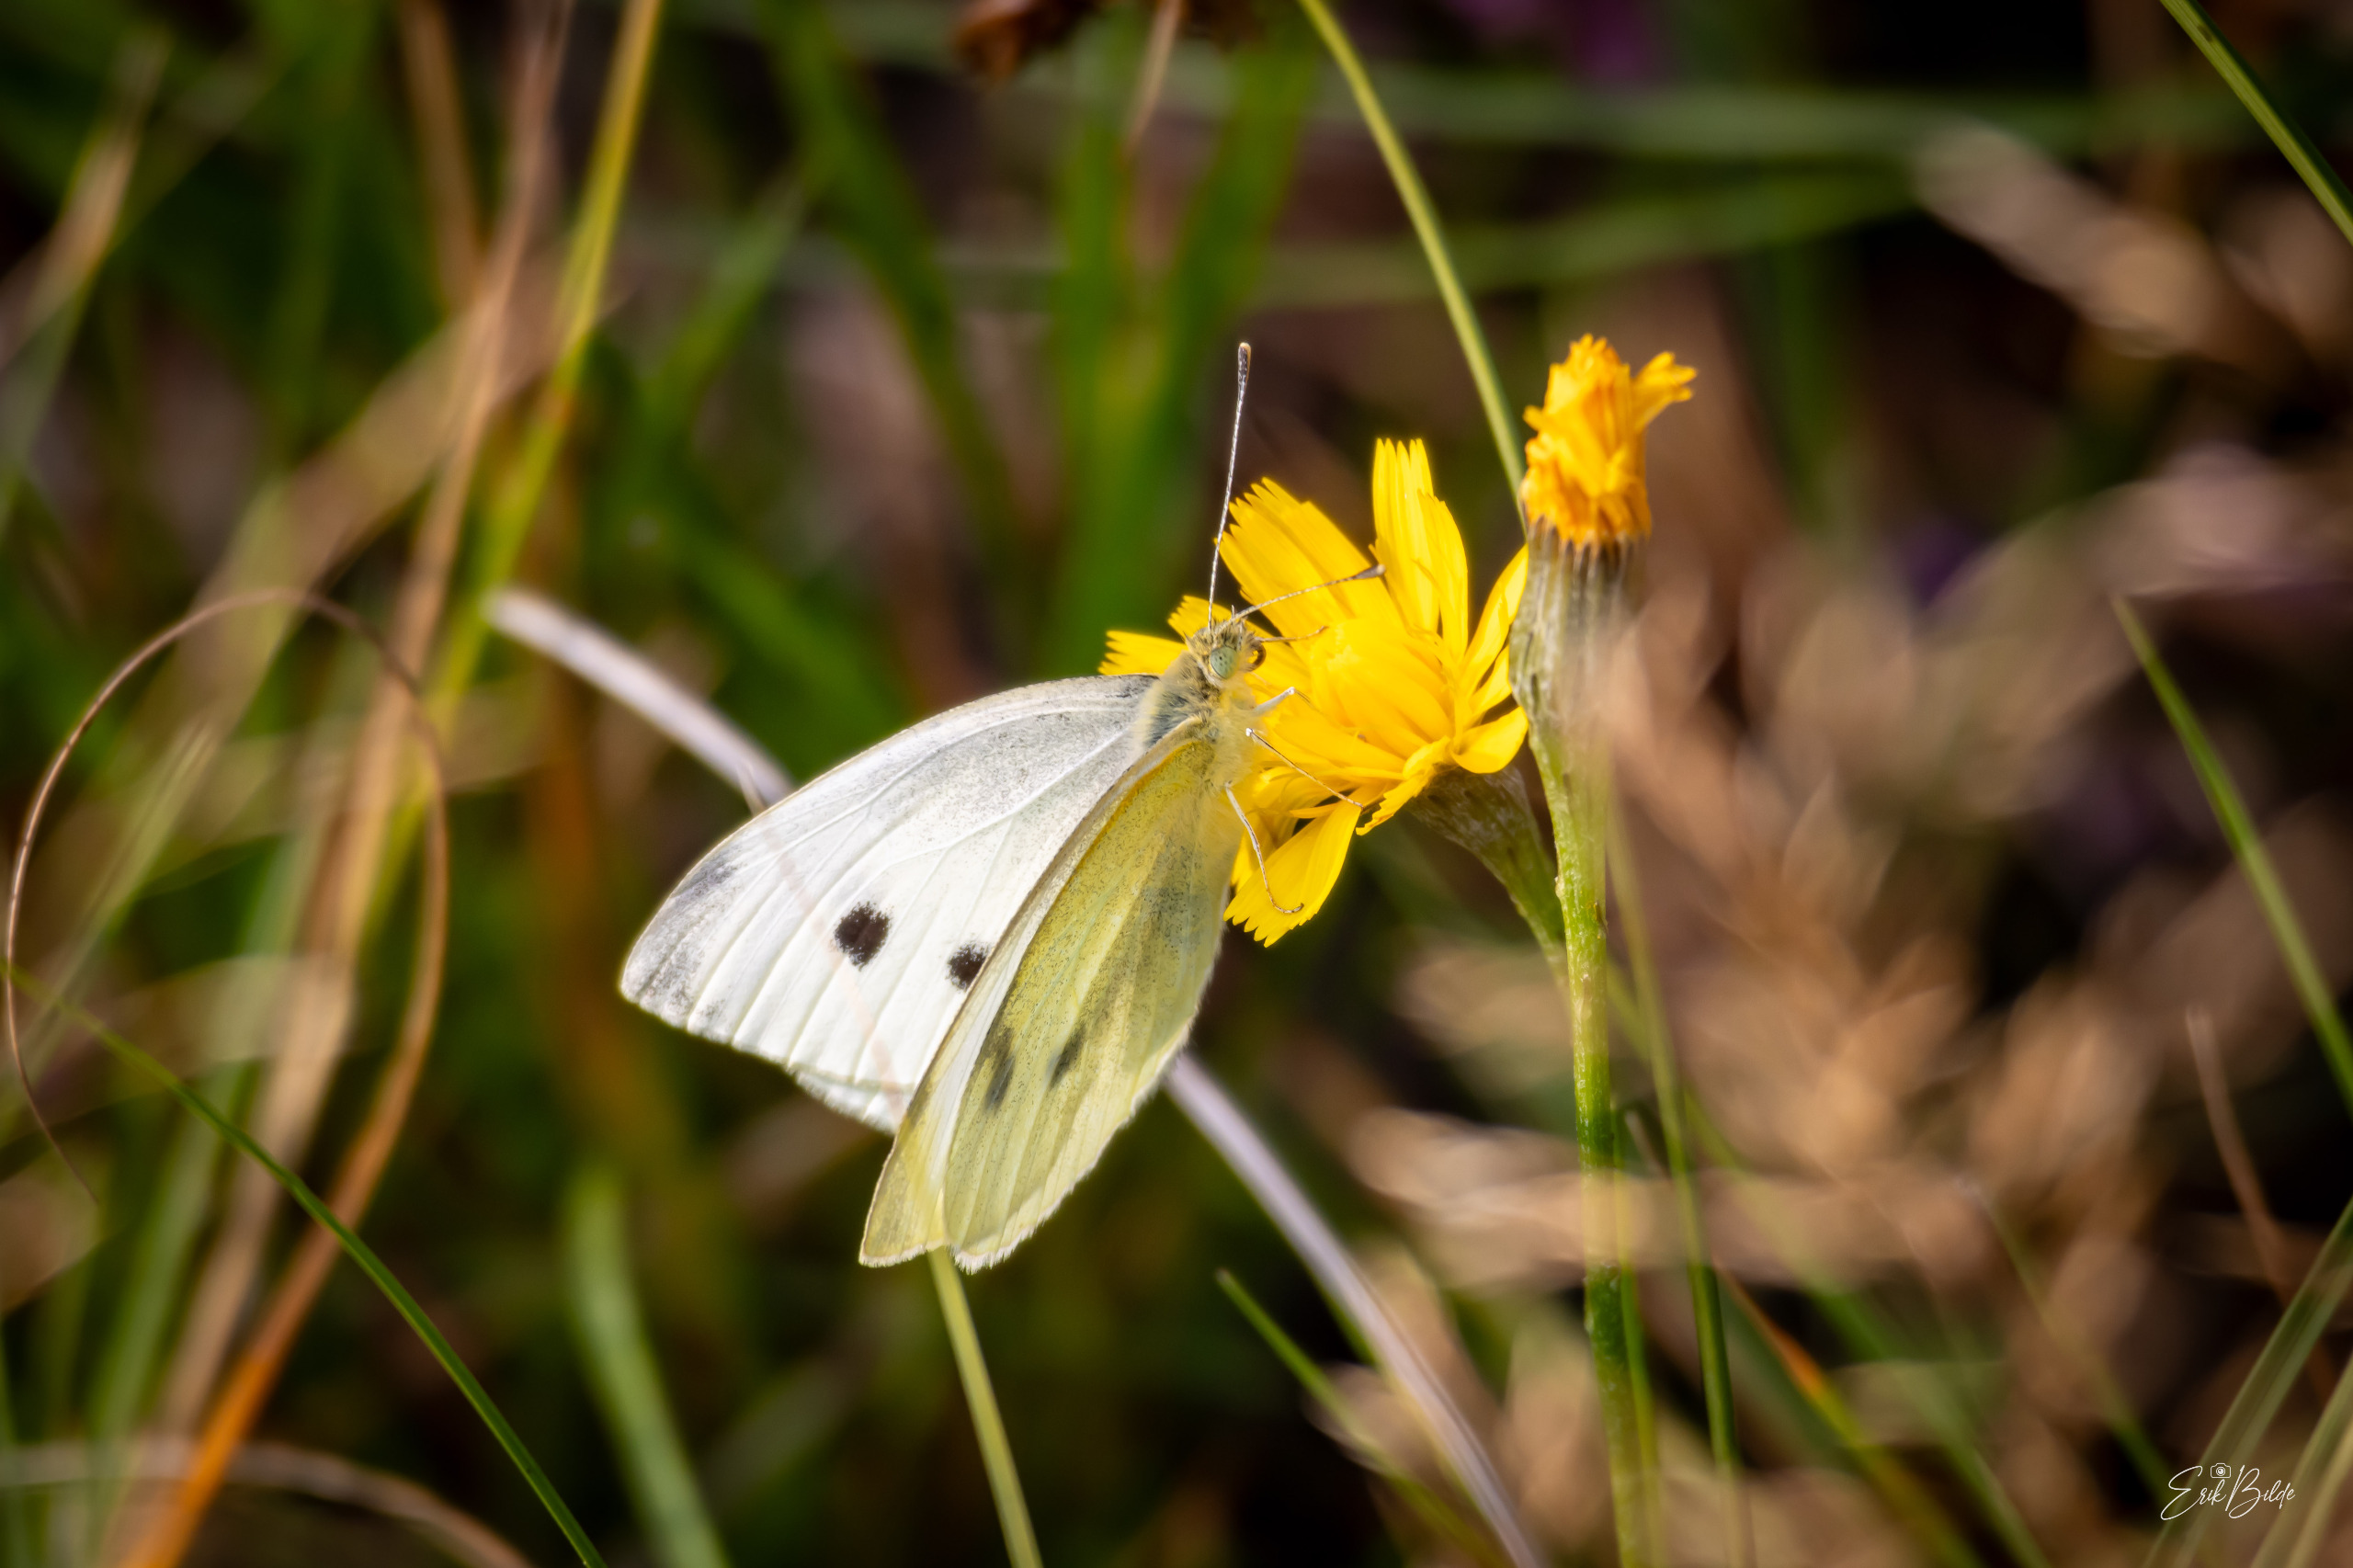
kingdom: Animalia
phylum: Arthropoda
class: Insecta
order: Lepidoptera
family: Pieridae
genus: Pieris
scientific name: Pieris rapae
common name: Lille kålsommerfugl
